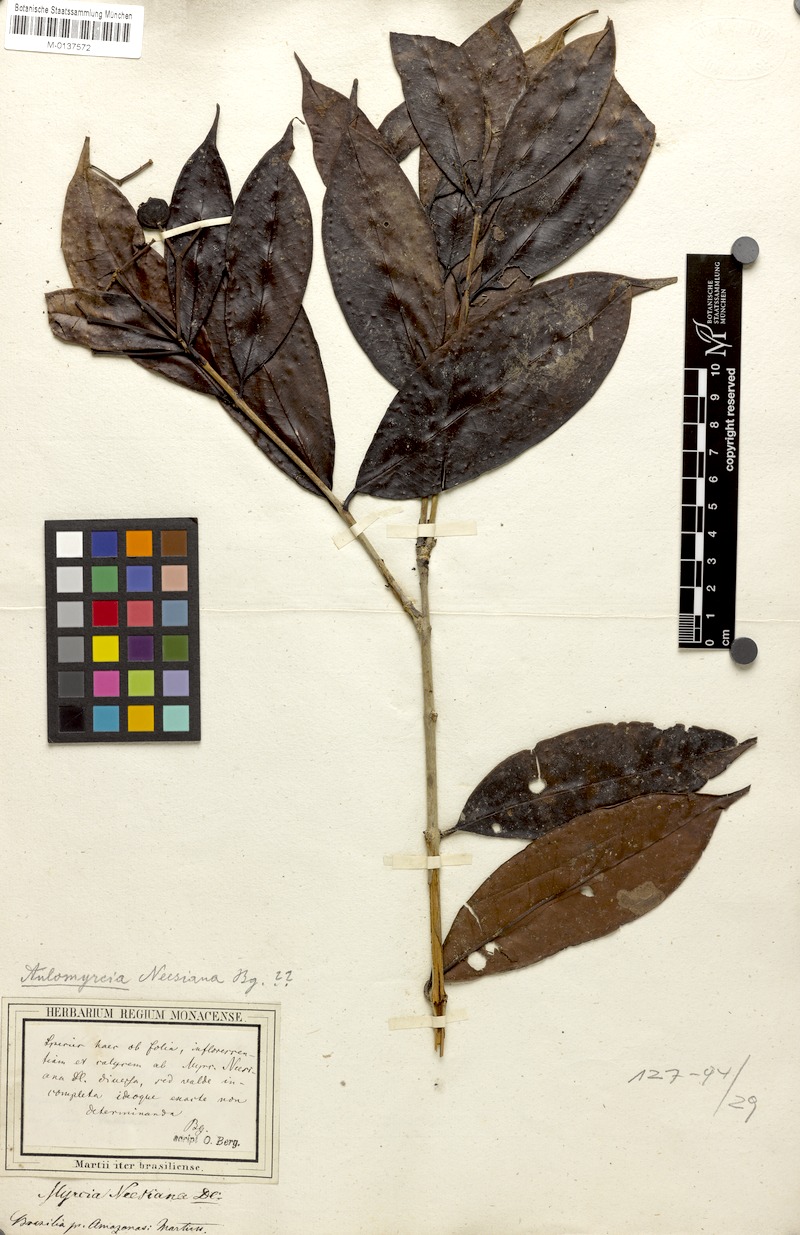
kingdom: Plantae
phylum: Tracheophyta
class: Magnoliopsida
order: Myrtales
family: Myrtaceae
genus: Myrcia
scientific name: Myrcia neesiana
